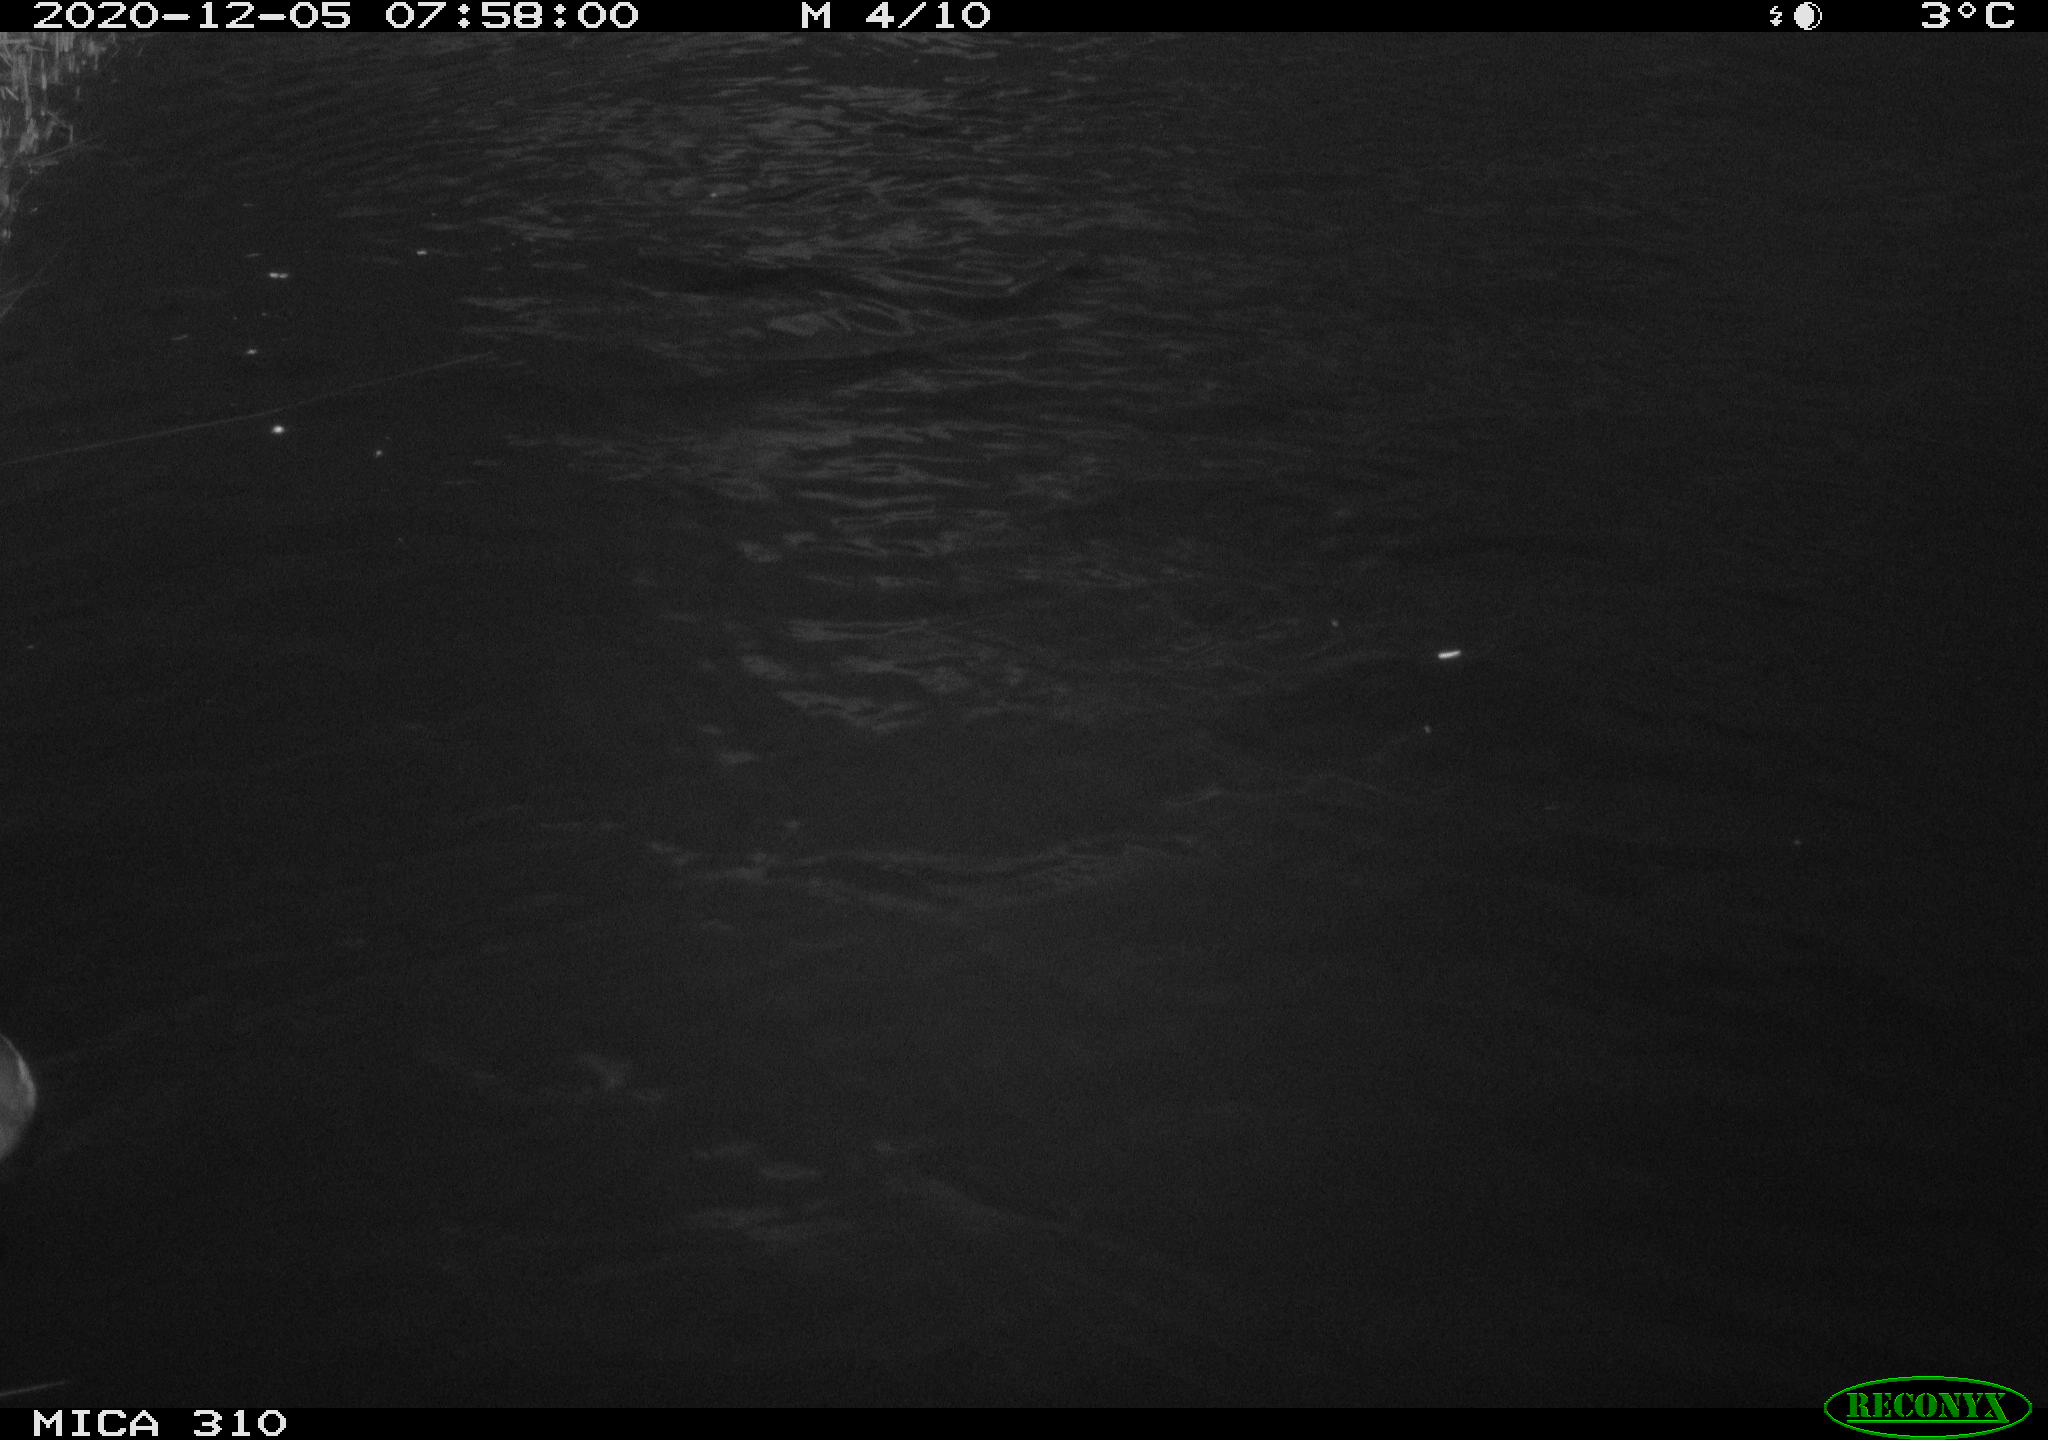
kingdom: Animalia
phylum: Chordata
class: Aves
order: Gruiformes
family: Rallidae
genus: Gallinula
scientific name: Gallinula chloropus
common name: Common moorhen
